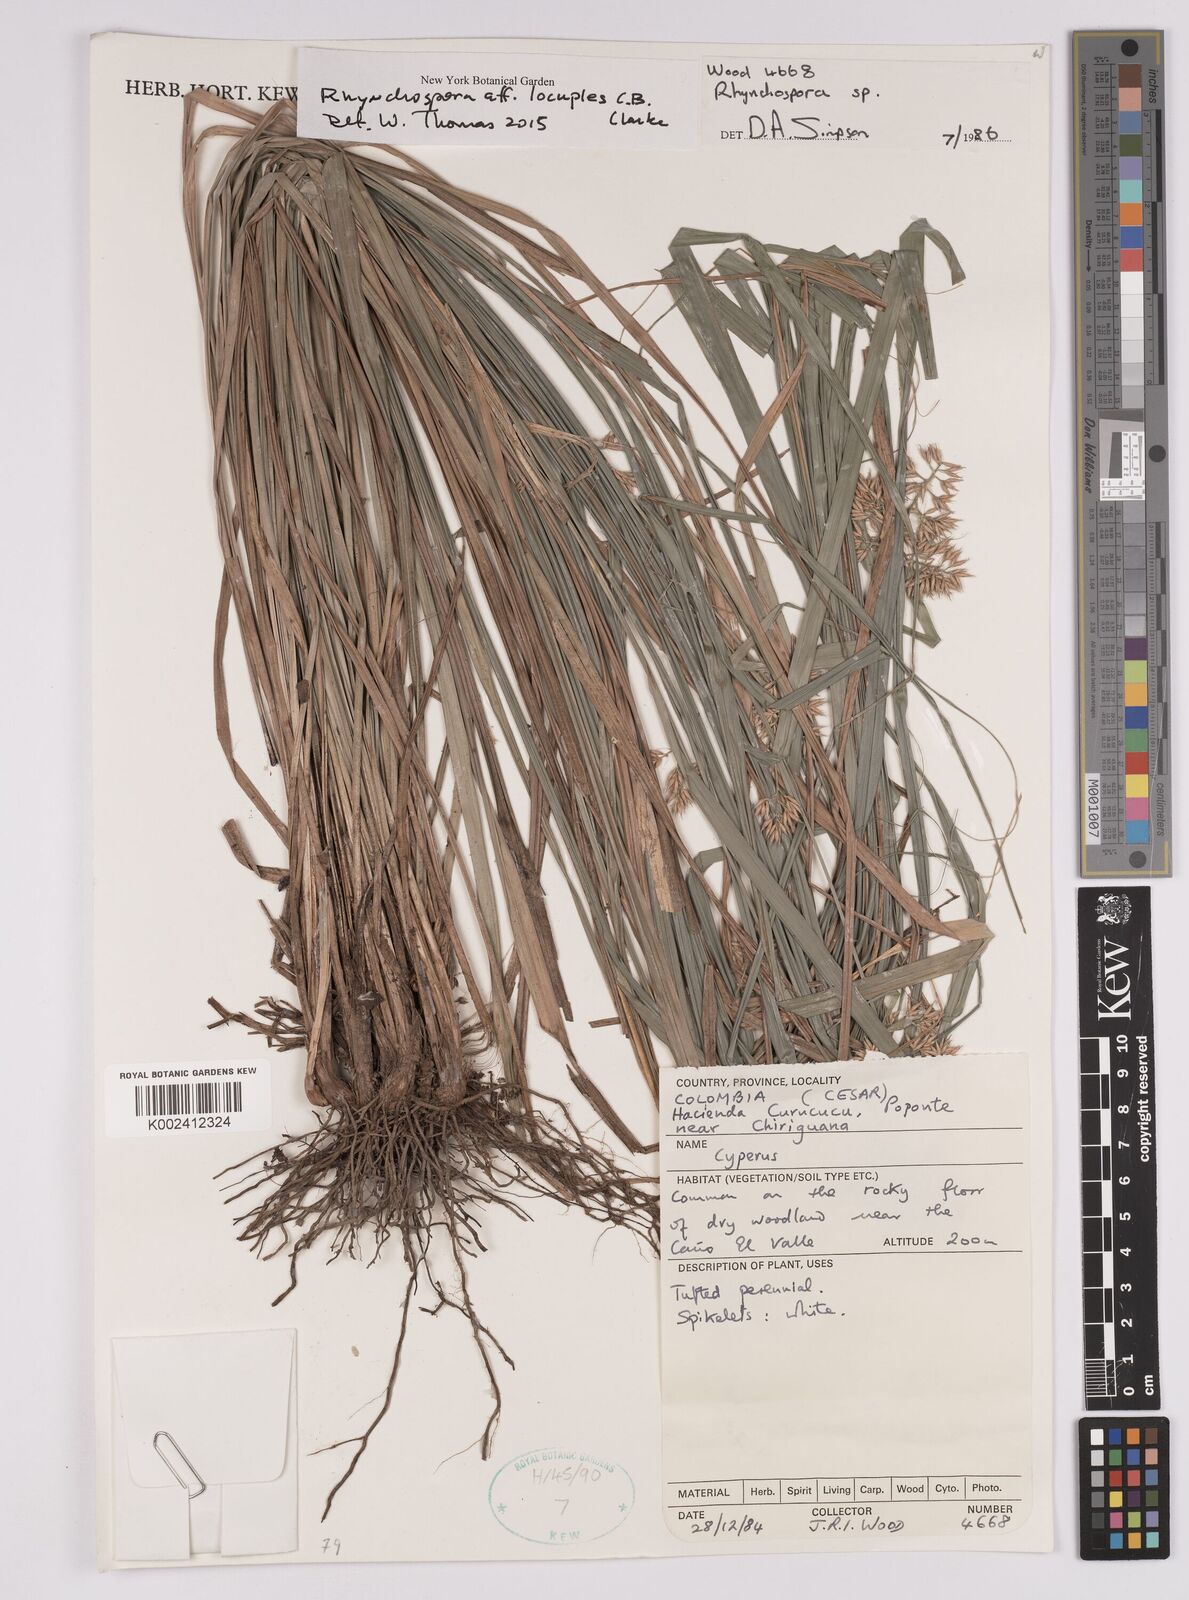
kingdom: Plantae
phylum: Tracheophyta
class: Liliopsida
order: Poales
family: Cyperaceae
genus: Rhynchospora
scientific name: Rhynchospora locuples
